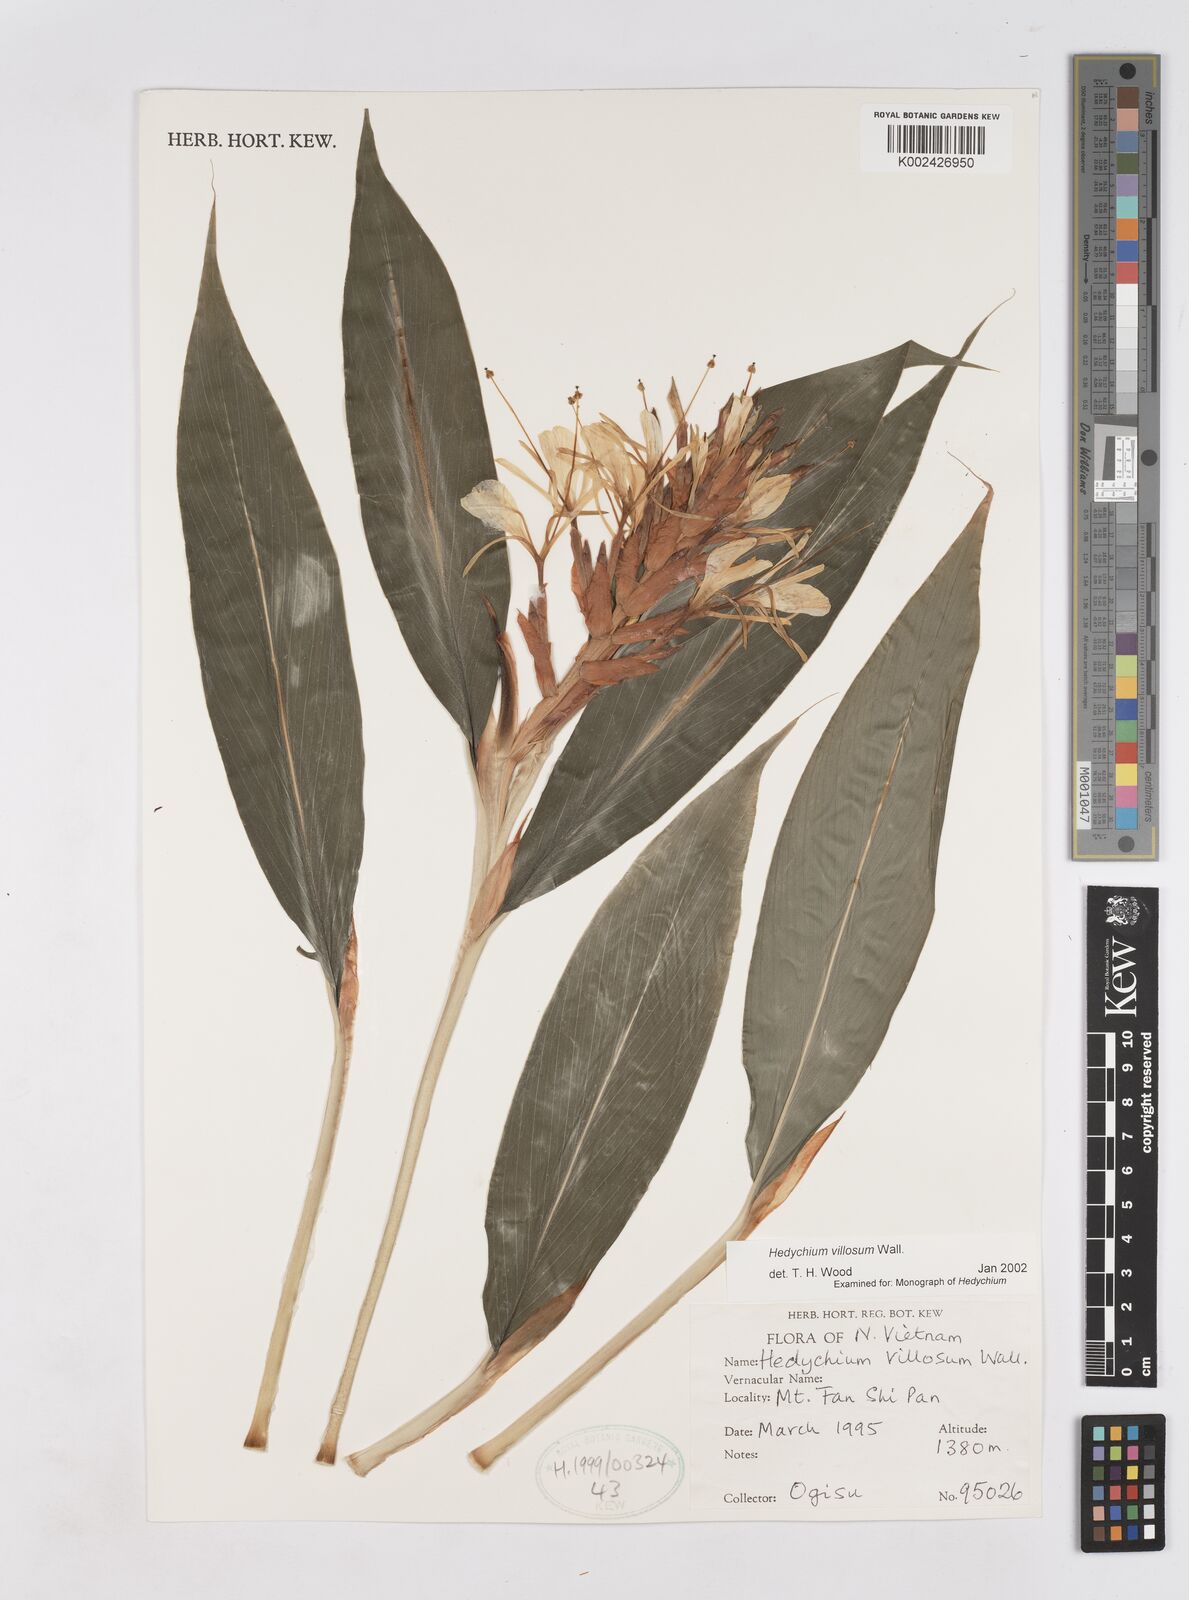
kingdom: Plantae
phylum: Tracheophyta
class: Liliopsida
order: Zingiberales
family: Zingiberaceae
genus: Hedychium
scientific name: Hedychium villosum
